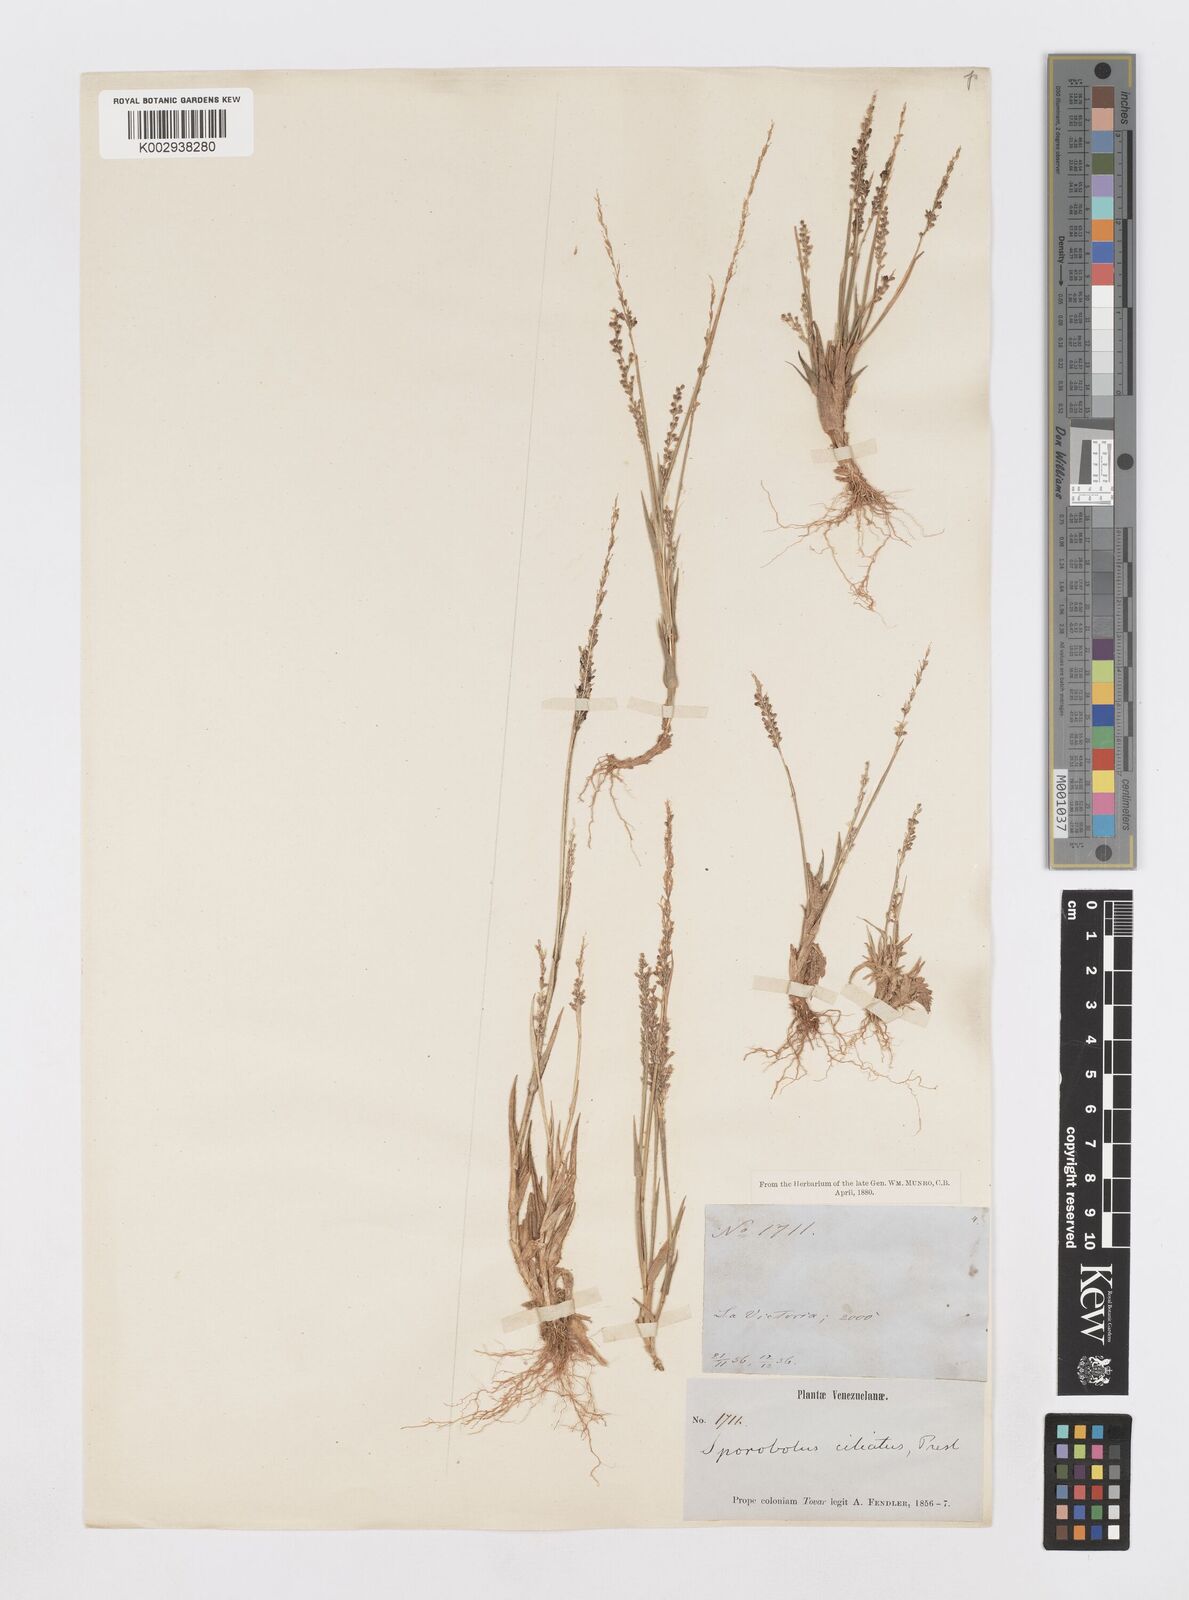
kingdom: Plantae
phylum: Tracheophyta
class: Liliopsida
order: Poales
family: Poaceae
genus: Sporobolus
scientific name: Sporobolus pilifer
